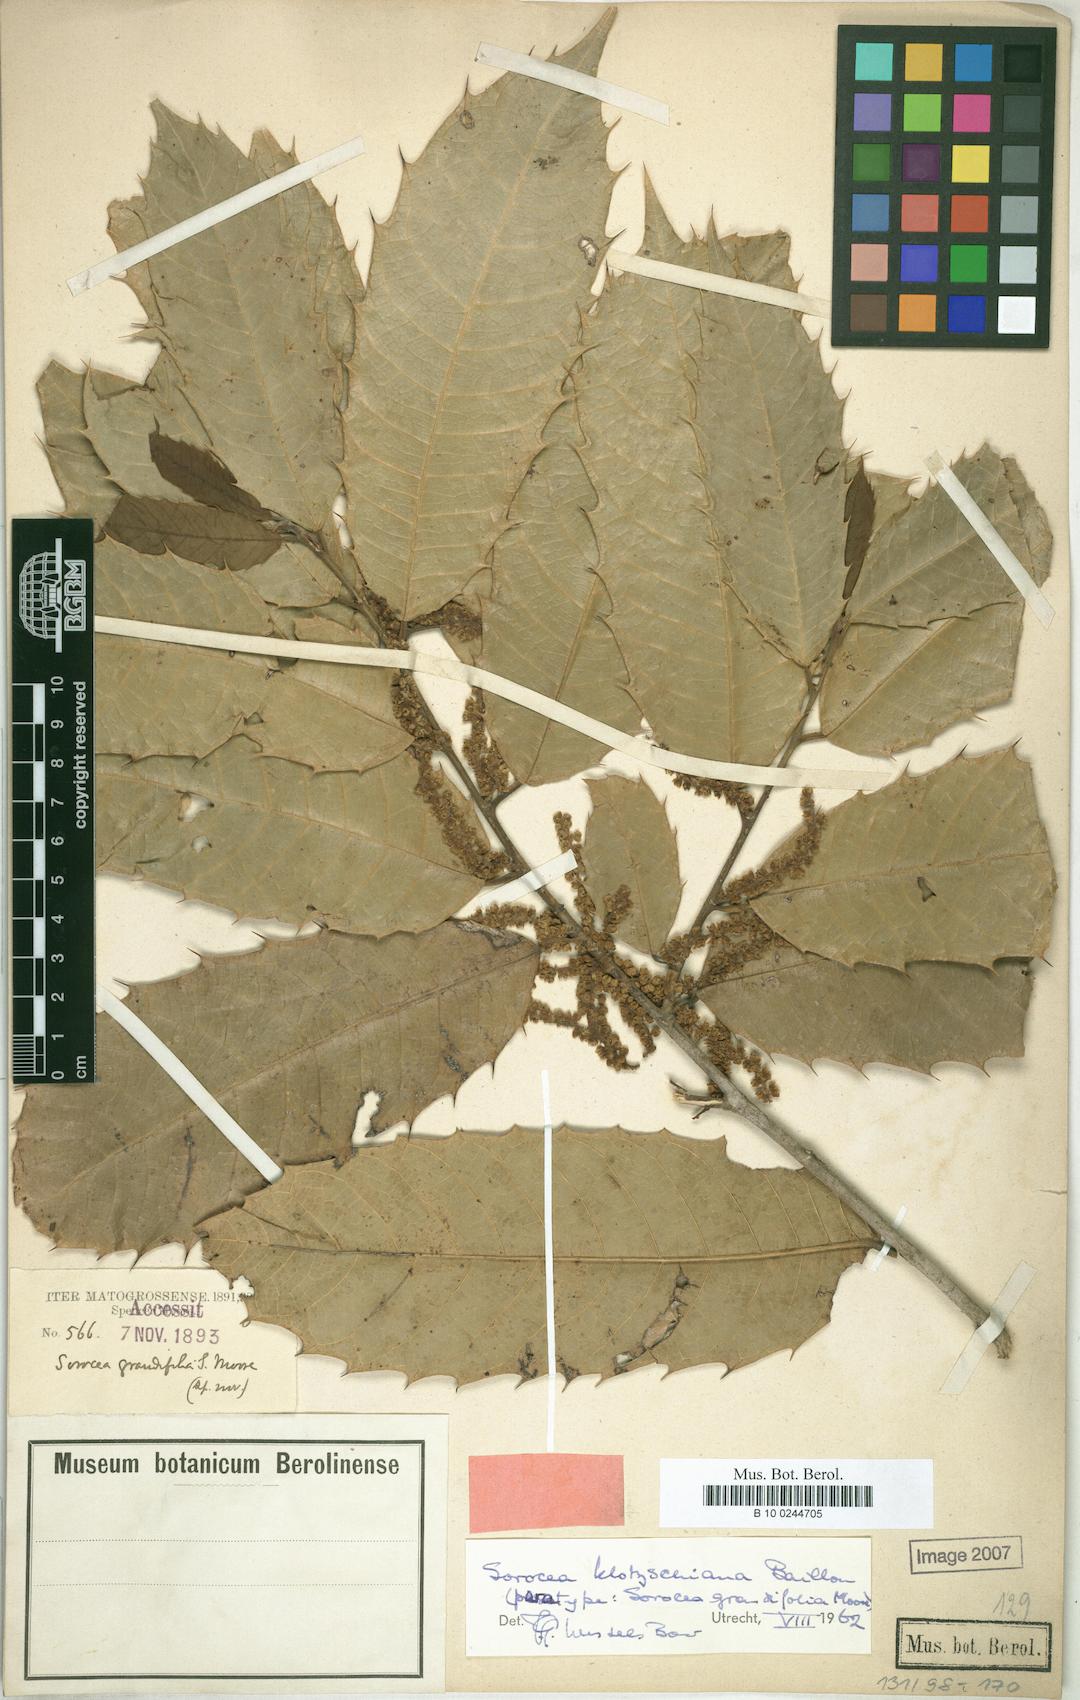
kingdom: Plantae
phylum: Tracheophyta
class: Magnoliopsida
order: Rosales
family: Moraceae
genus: Sorocea
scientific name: Sorocea guilleminiana
